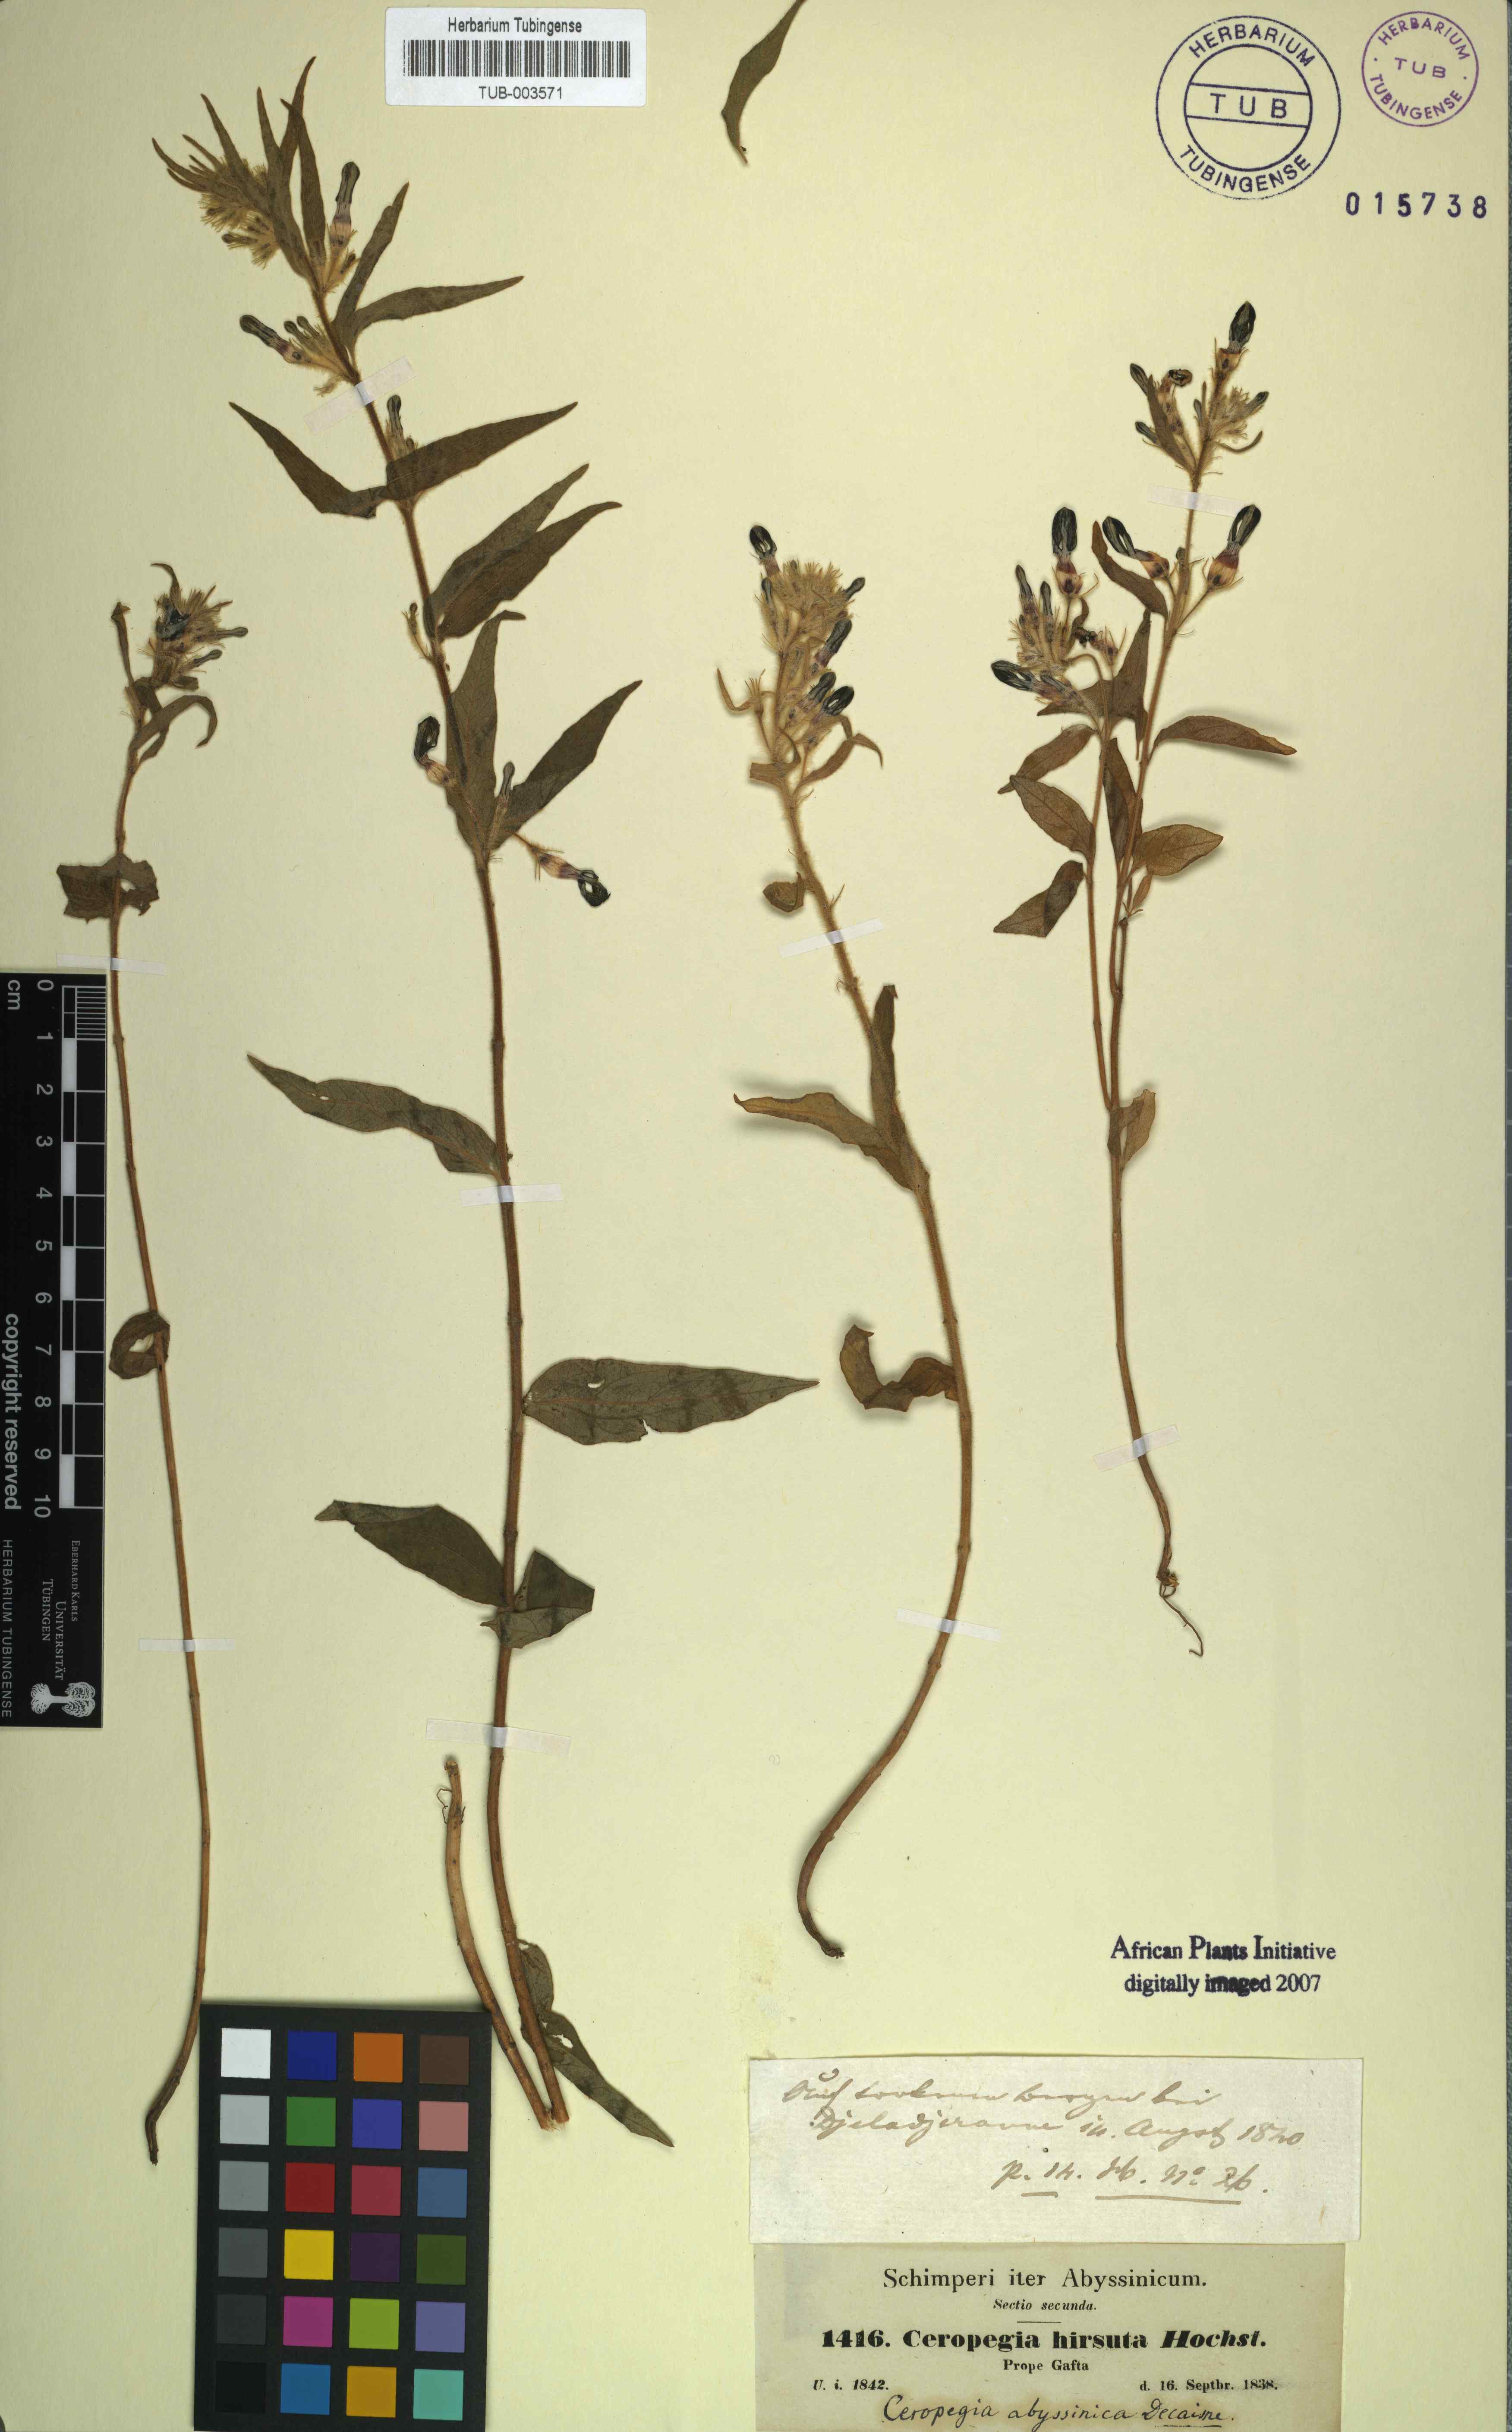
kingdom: Plantae
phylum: Tracheophyta
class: Magnoliopsida
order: Gentianales
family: Apocynaceae
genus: Ceropegia
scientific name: Ceropegia abyssinica
